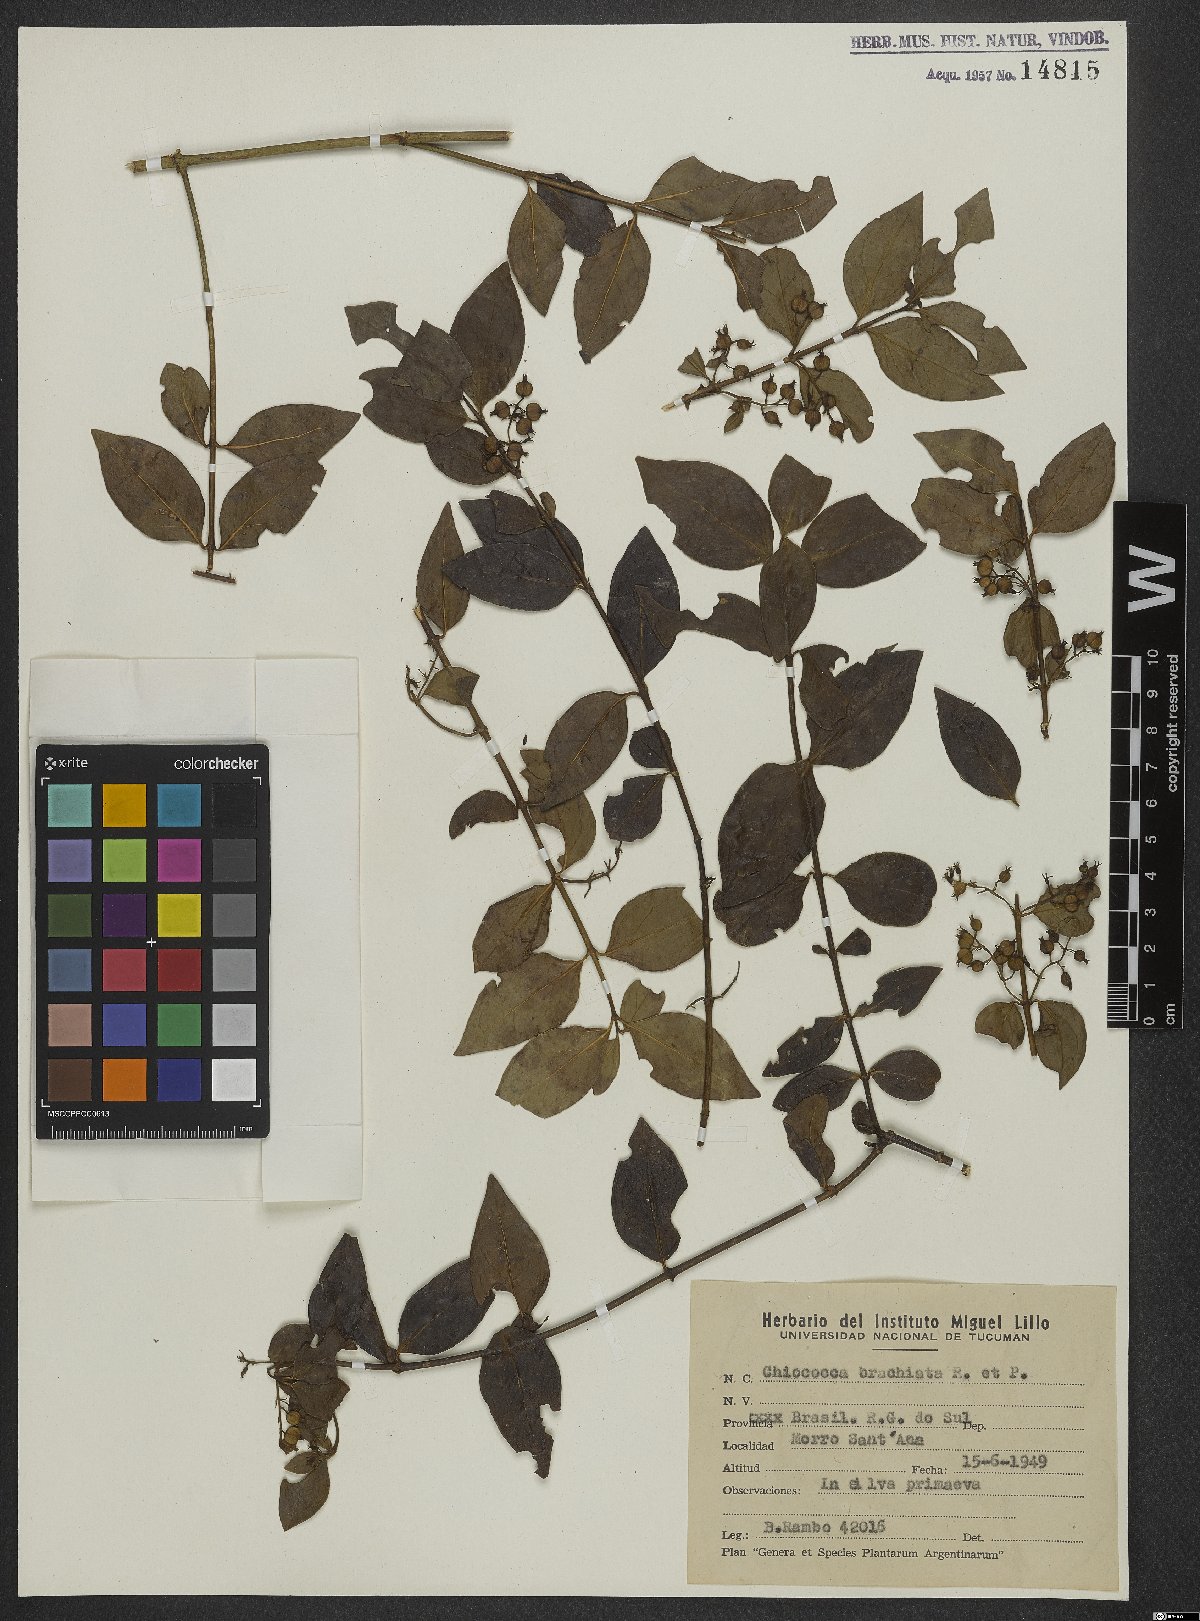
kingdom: Plantae
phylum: Tracheophyta
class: Magnoliopsida
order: Gentianales
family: Rubiaceae
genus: Chiococca
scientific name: Chiococca alba
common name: Snowberry
